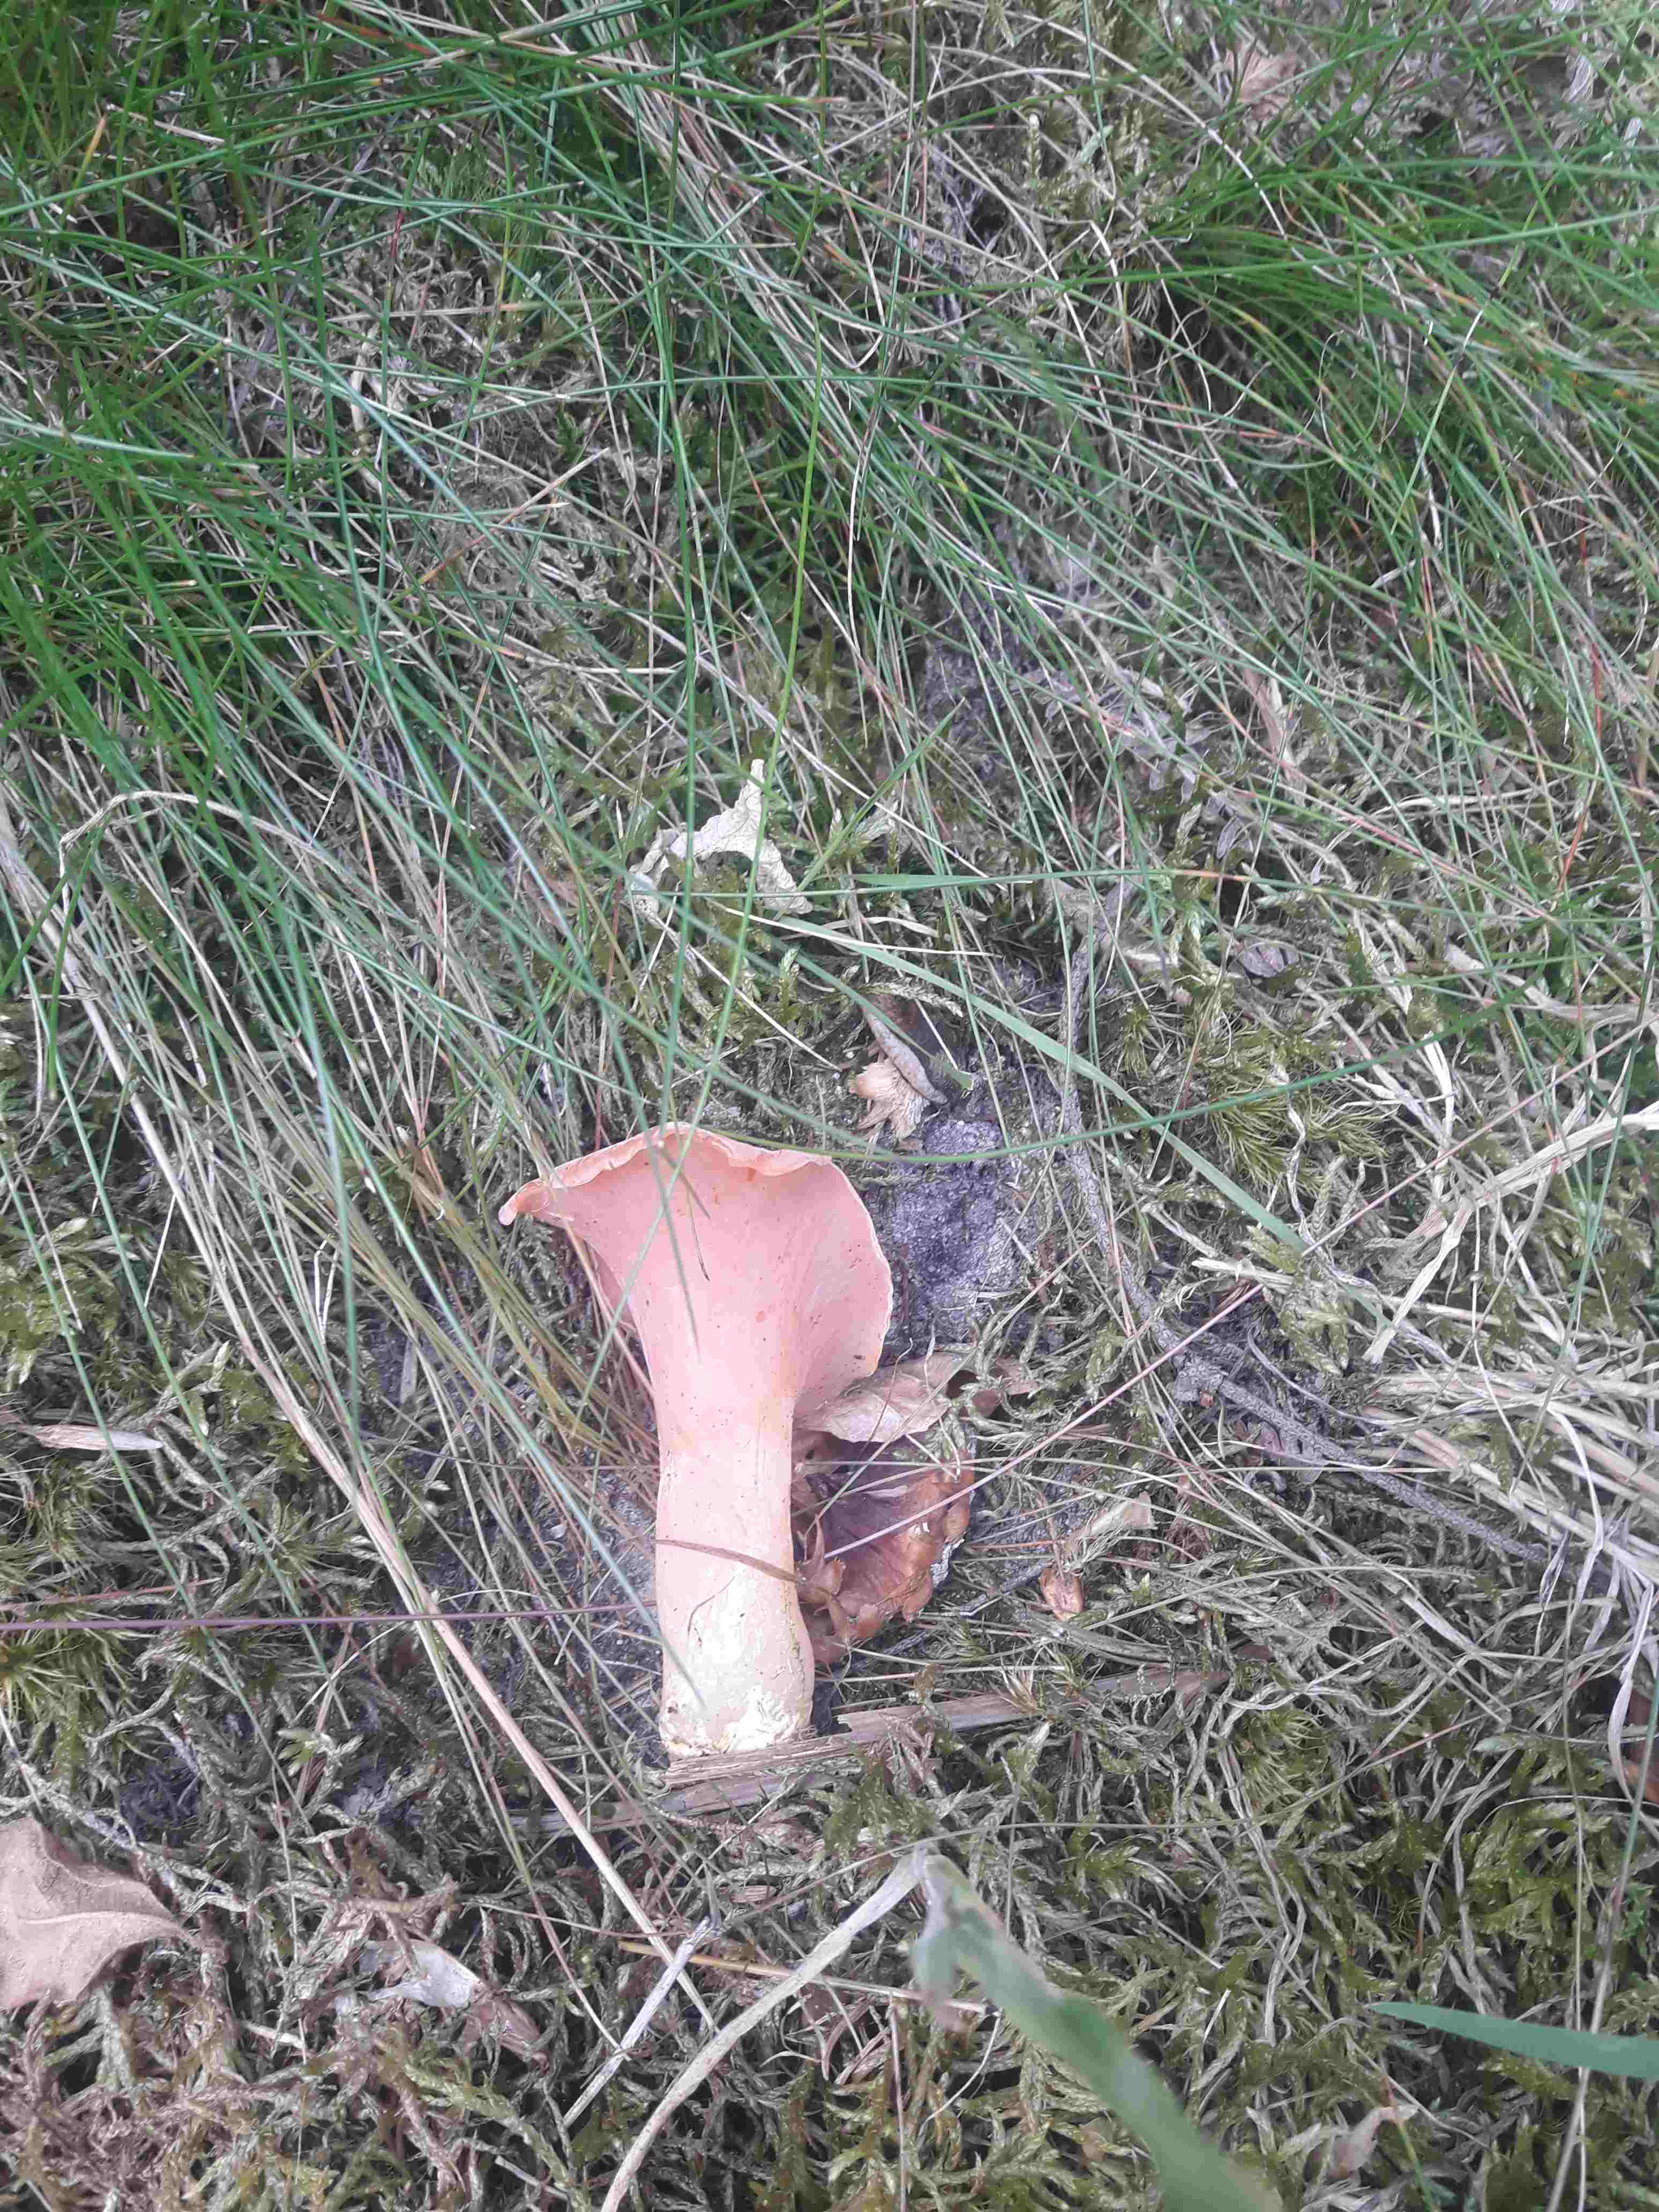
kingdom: Fungi
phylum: Basidiomycota
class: Agaricomycetes
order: Auriculariales
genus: Guepinia
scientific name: Guepinia helvelloides
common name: bævretunge
